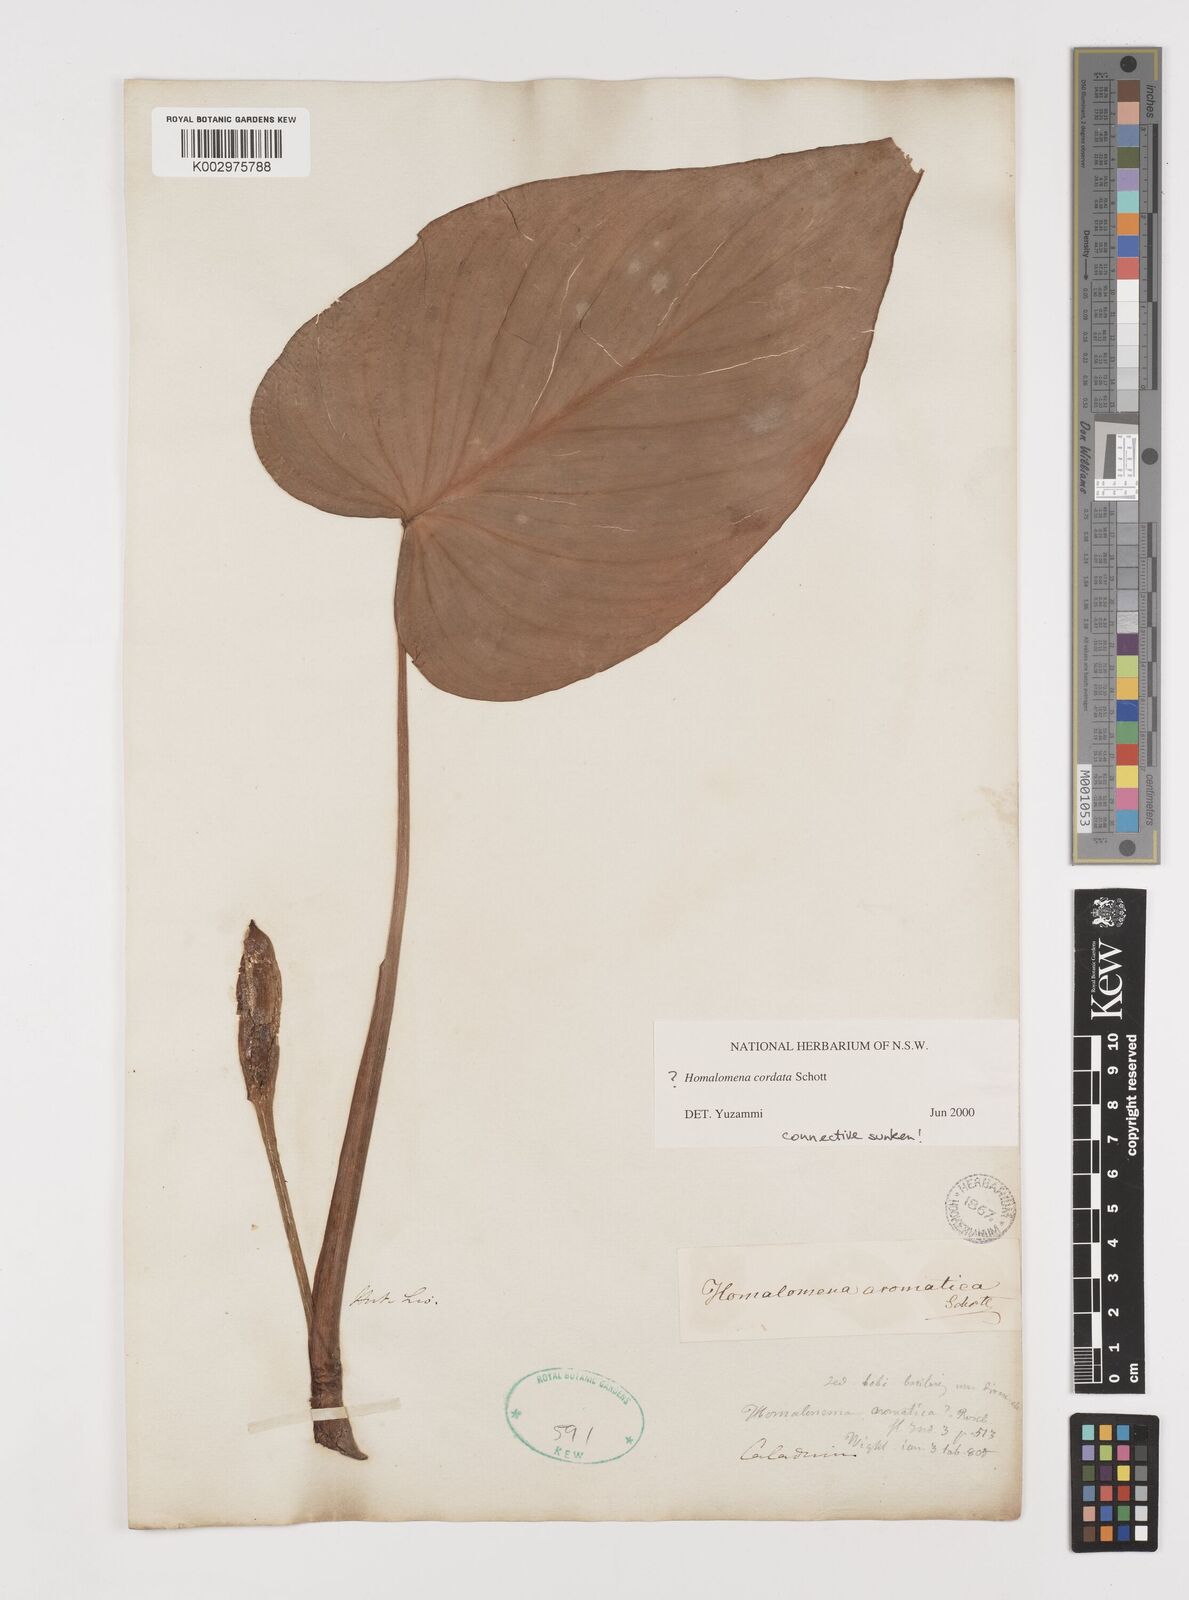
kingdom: Plantae
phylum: Tracheophyta
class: Liliopsida
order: Alismatales
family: Araceae
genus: Homalomena
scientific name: Homalomena cordata
